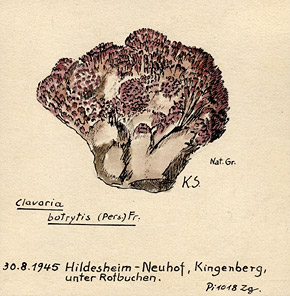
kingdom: Fungi
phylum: Basidiomycota
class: Agaricomycetes
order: Gomphales
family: Gomphaceae
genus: Ramaria
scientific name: Ramaria botrytis
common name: Rosso coral
